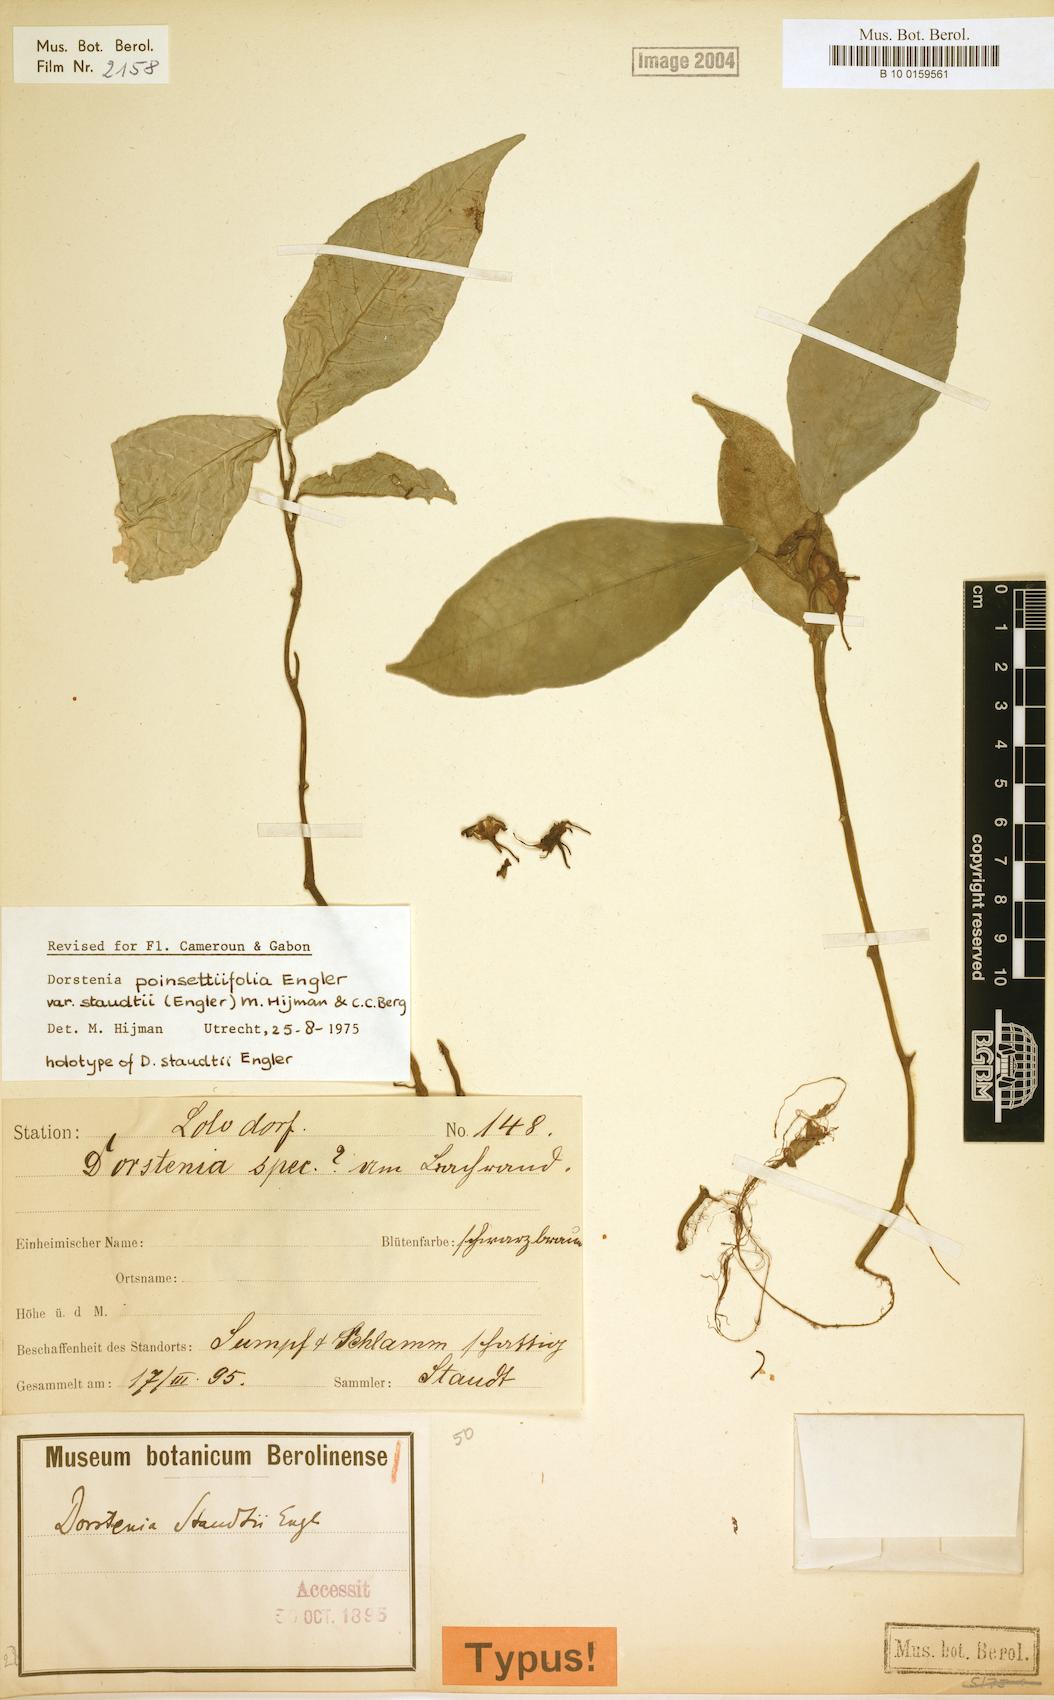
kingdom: Plantae
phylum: Tracheophyta
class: Magnoliopsida
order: Rosales
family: Moraceae
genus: Dorstenia
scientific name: Dorstenia poinsettifolia
